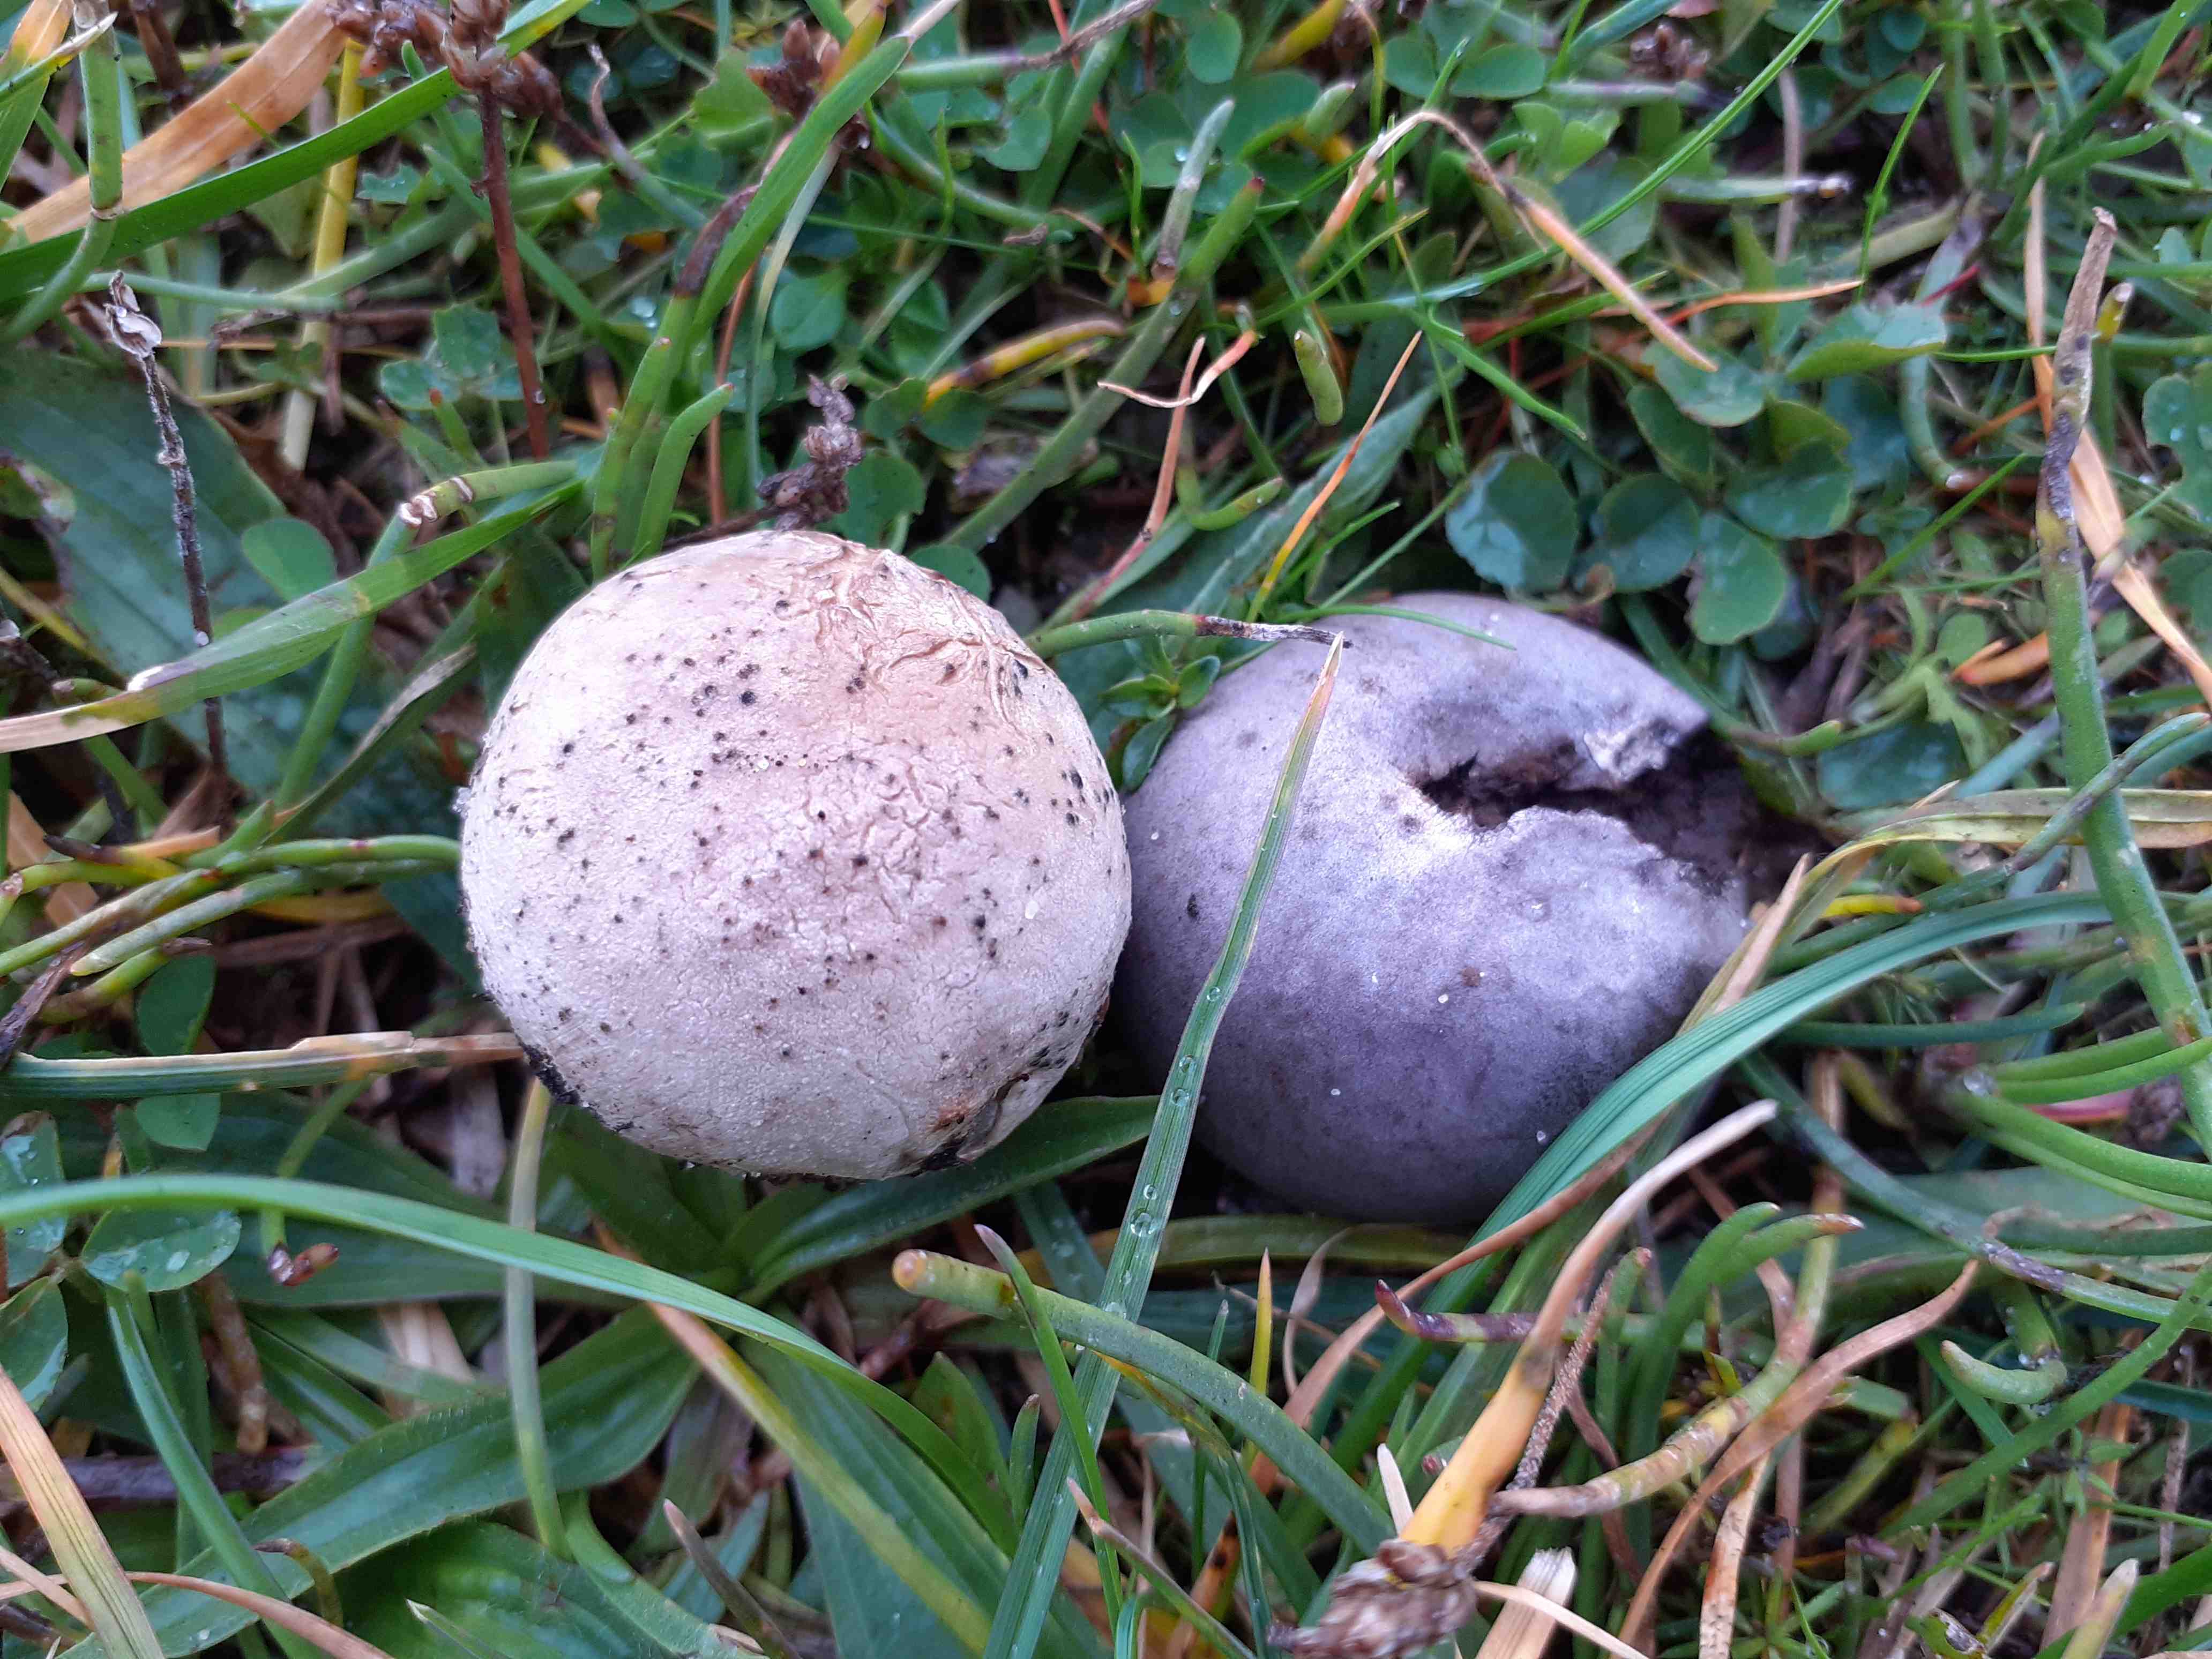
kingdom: Fungi
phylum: Basidiomycota
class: Agaricomycetes
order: Agaricales
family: Lycoperdaceae
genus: Bovista
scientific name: Bovista plumbea
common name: blygrå bovist
